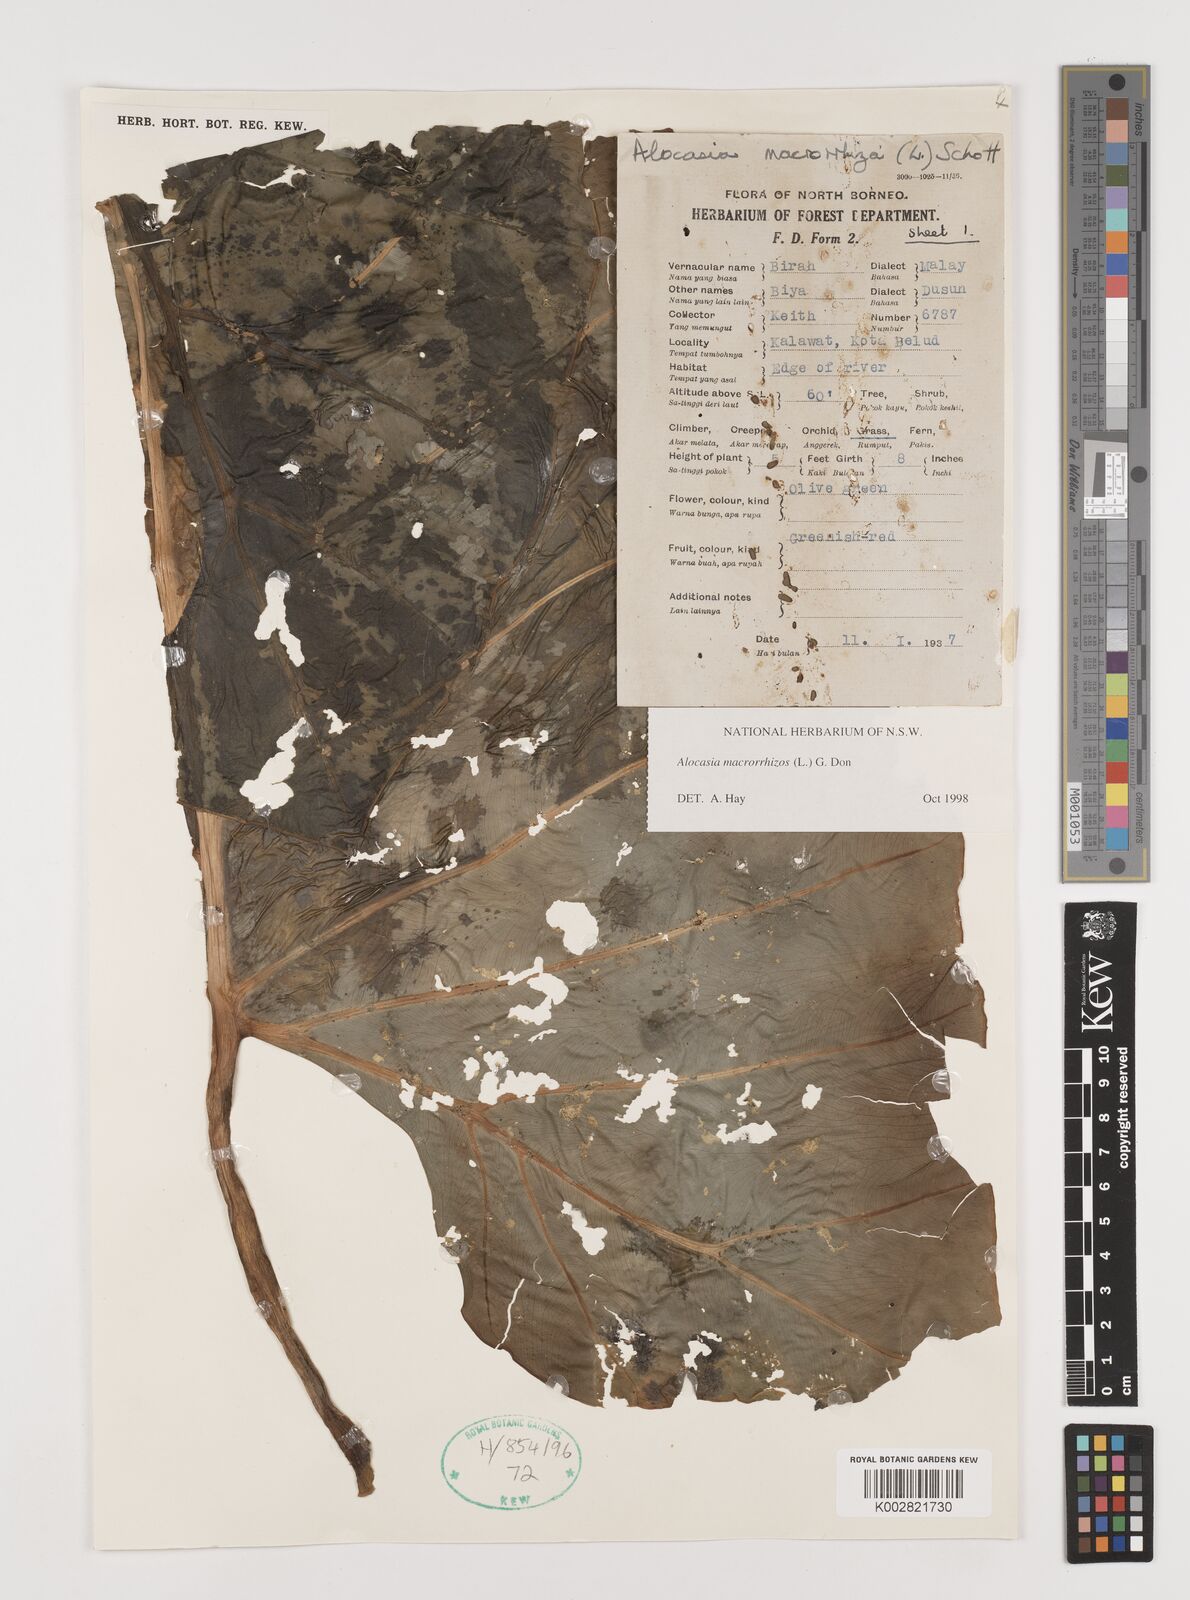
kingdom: Plantae
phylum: Tracheophyta
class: Liliopsida
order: Alismatales
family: Araceae
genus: Alocasia
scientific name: Alocasia macrorrhizos
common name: Giant taro
